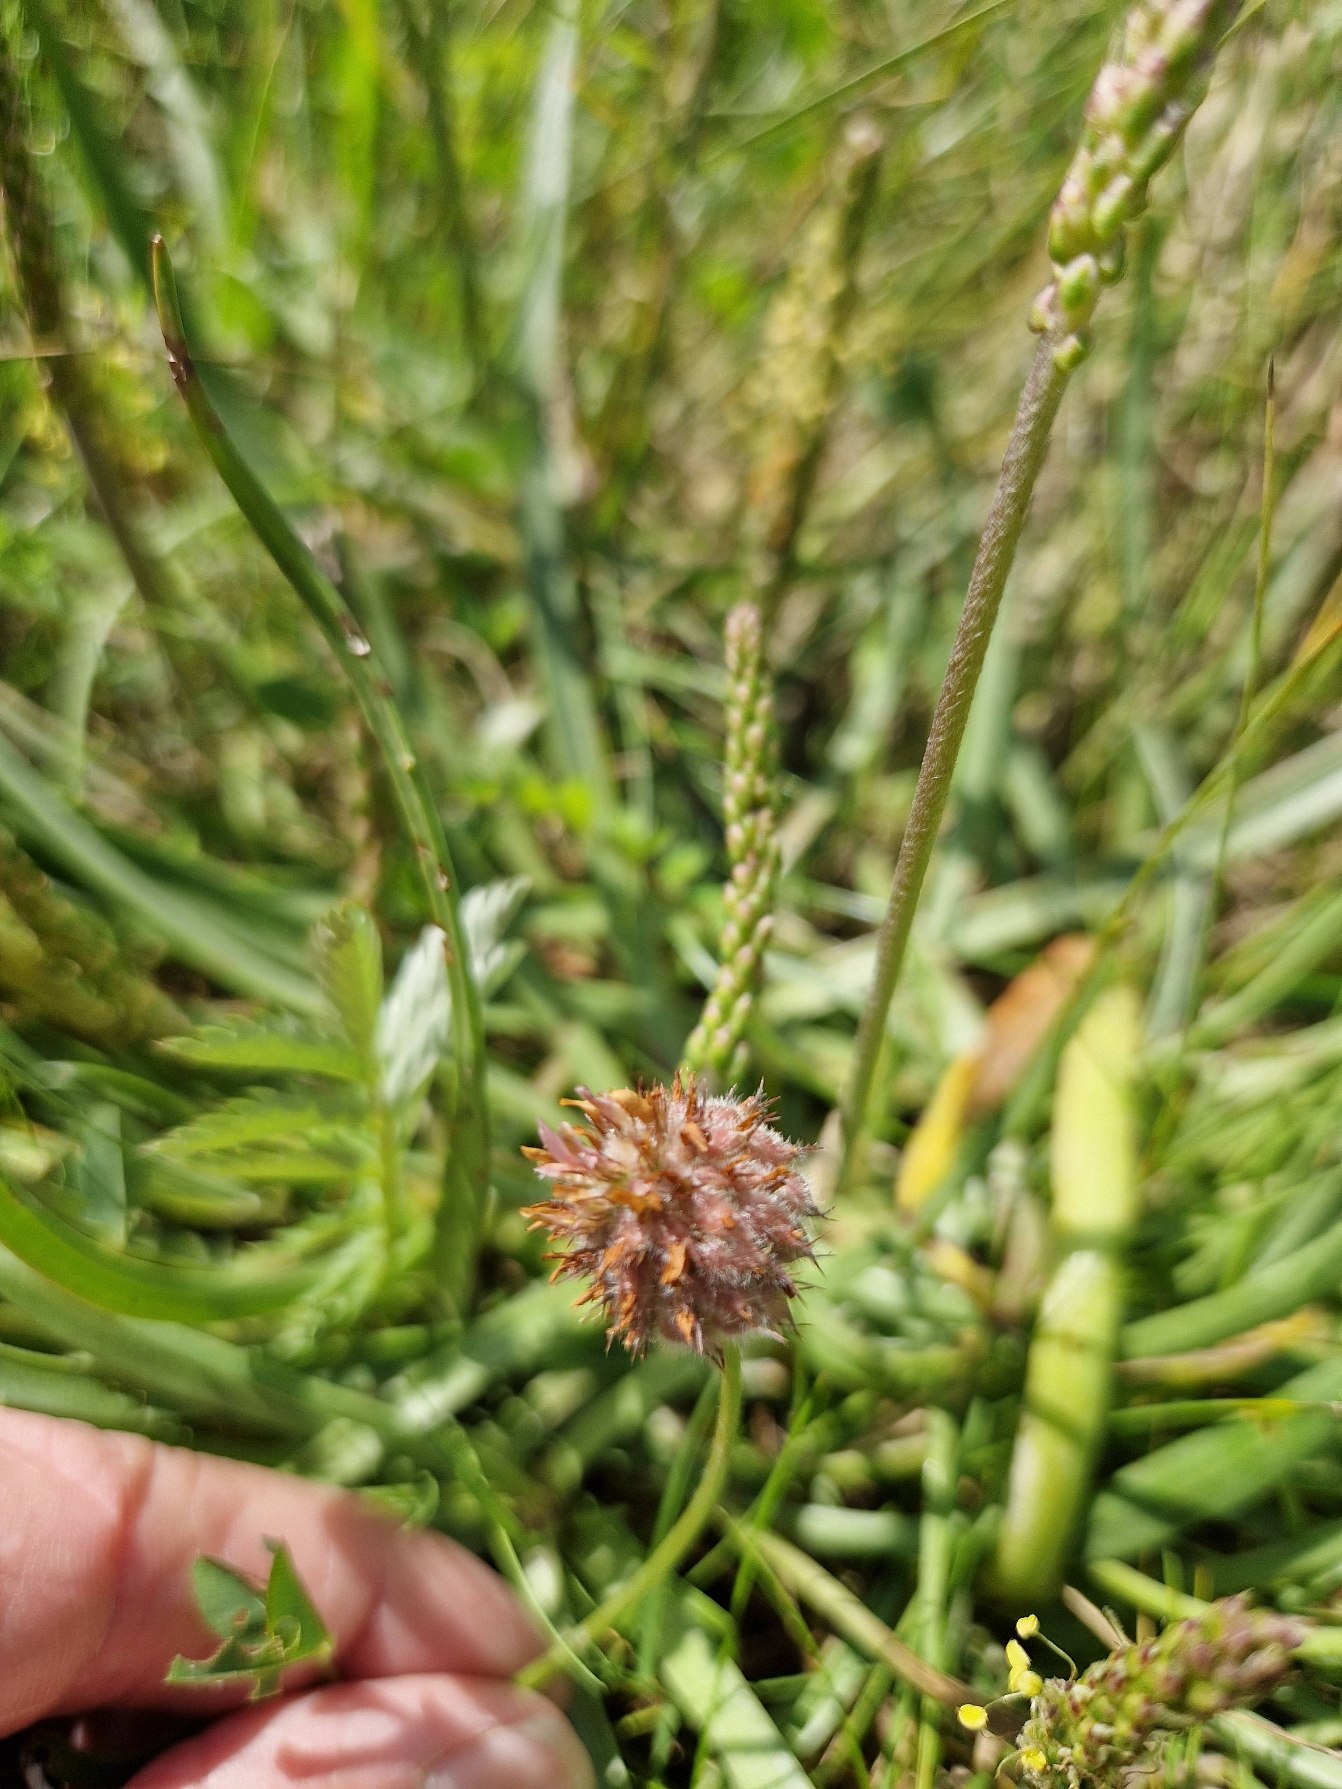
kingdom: Plantae
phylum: Tracheophyta
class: Magnoliopsida
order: Fabales
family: Fabaceae
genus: Trifolium
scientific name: Trifolium fragiferum
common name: Jordbær-kløver
